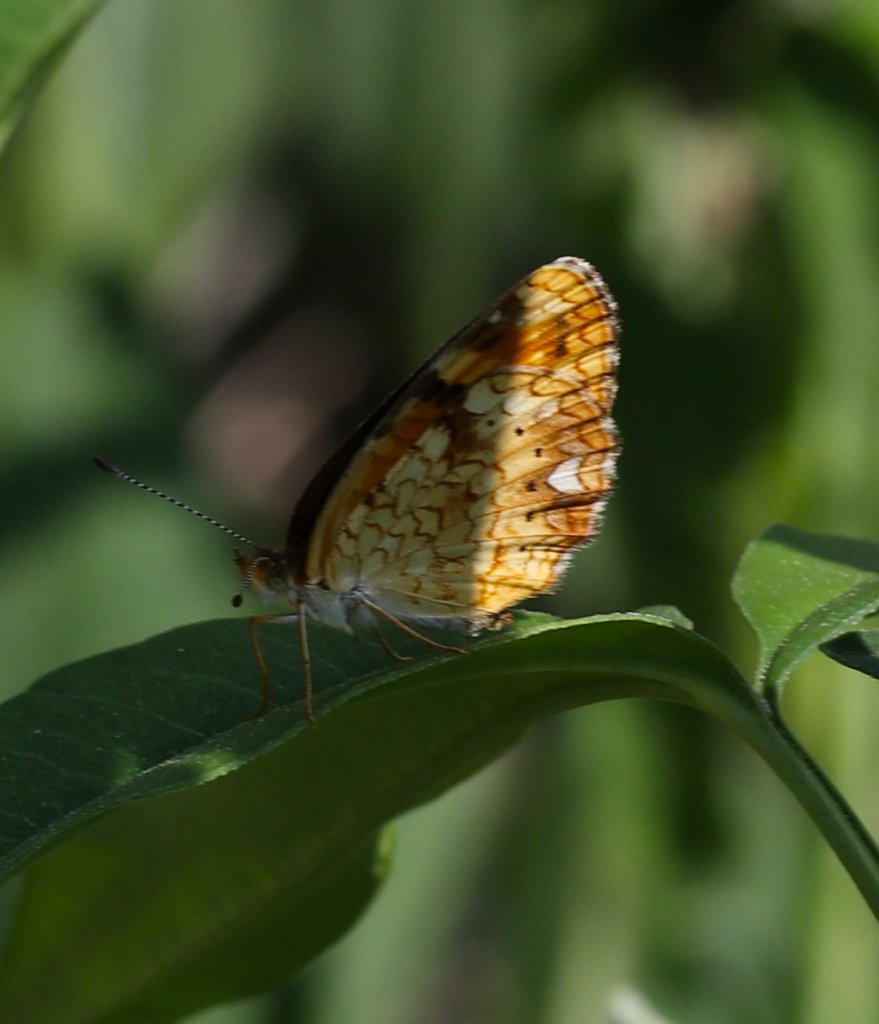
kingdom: Animalia
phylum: Arthropoda
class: Insecta
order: Lepidoptera
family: Nymphalidae
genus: Phyciodes
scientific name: Phyciodes batesii
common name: Tawny Crescent
